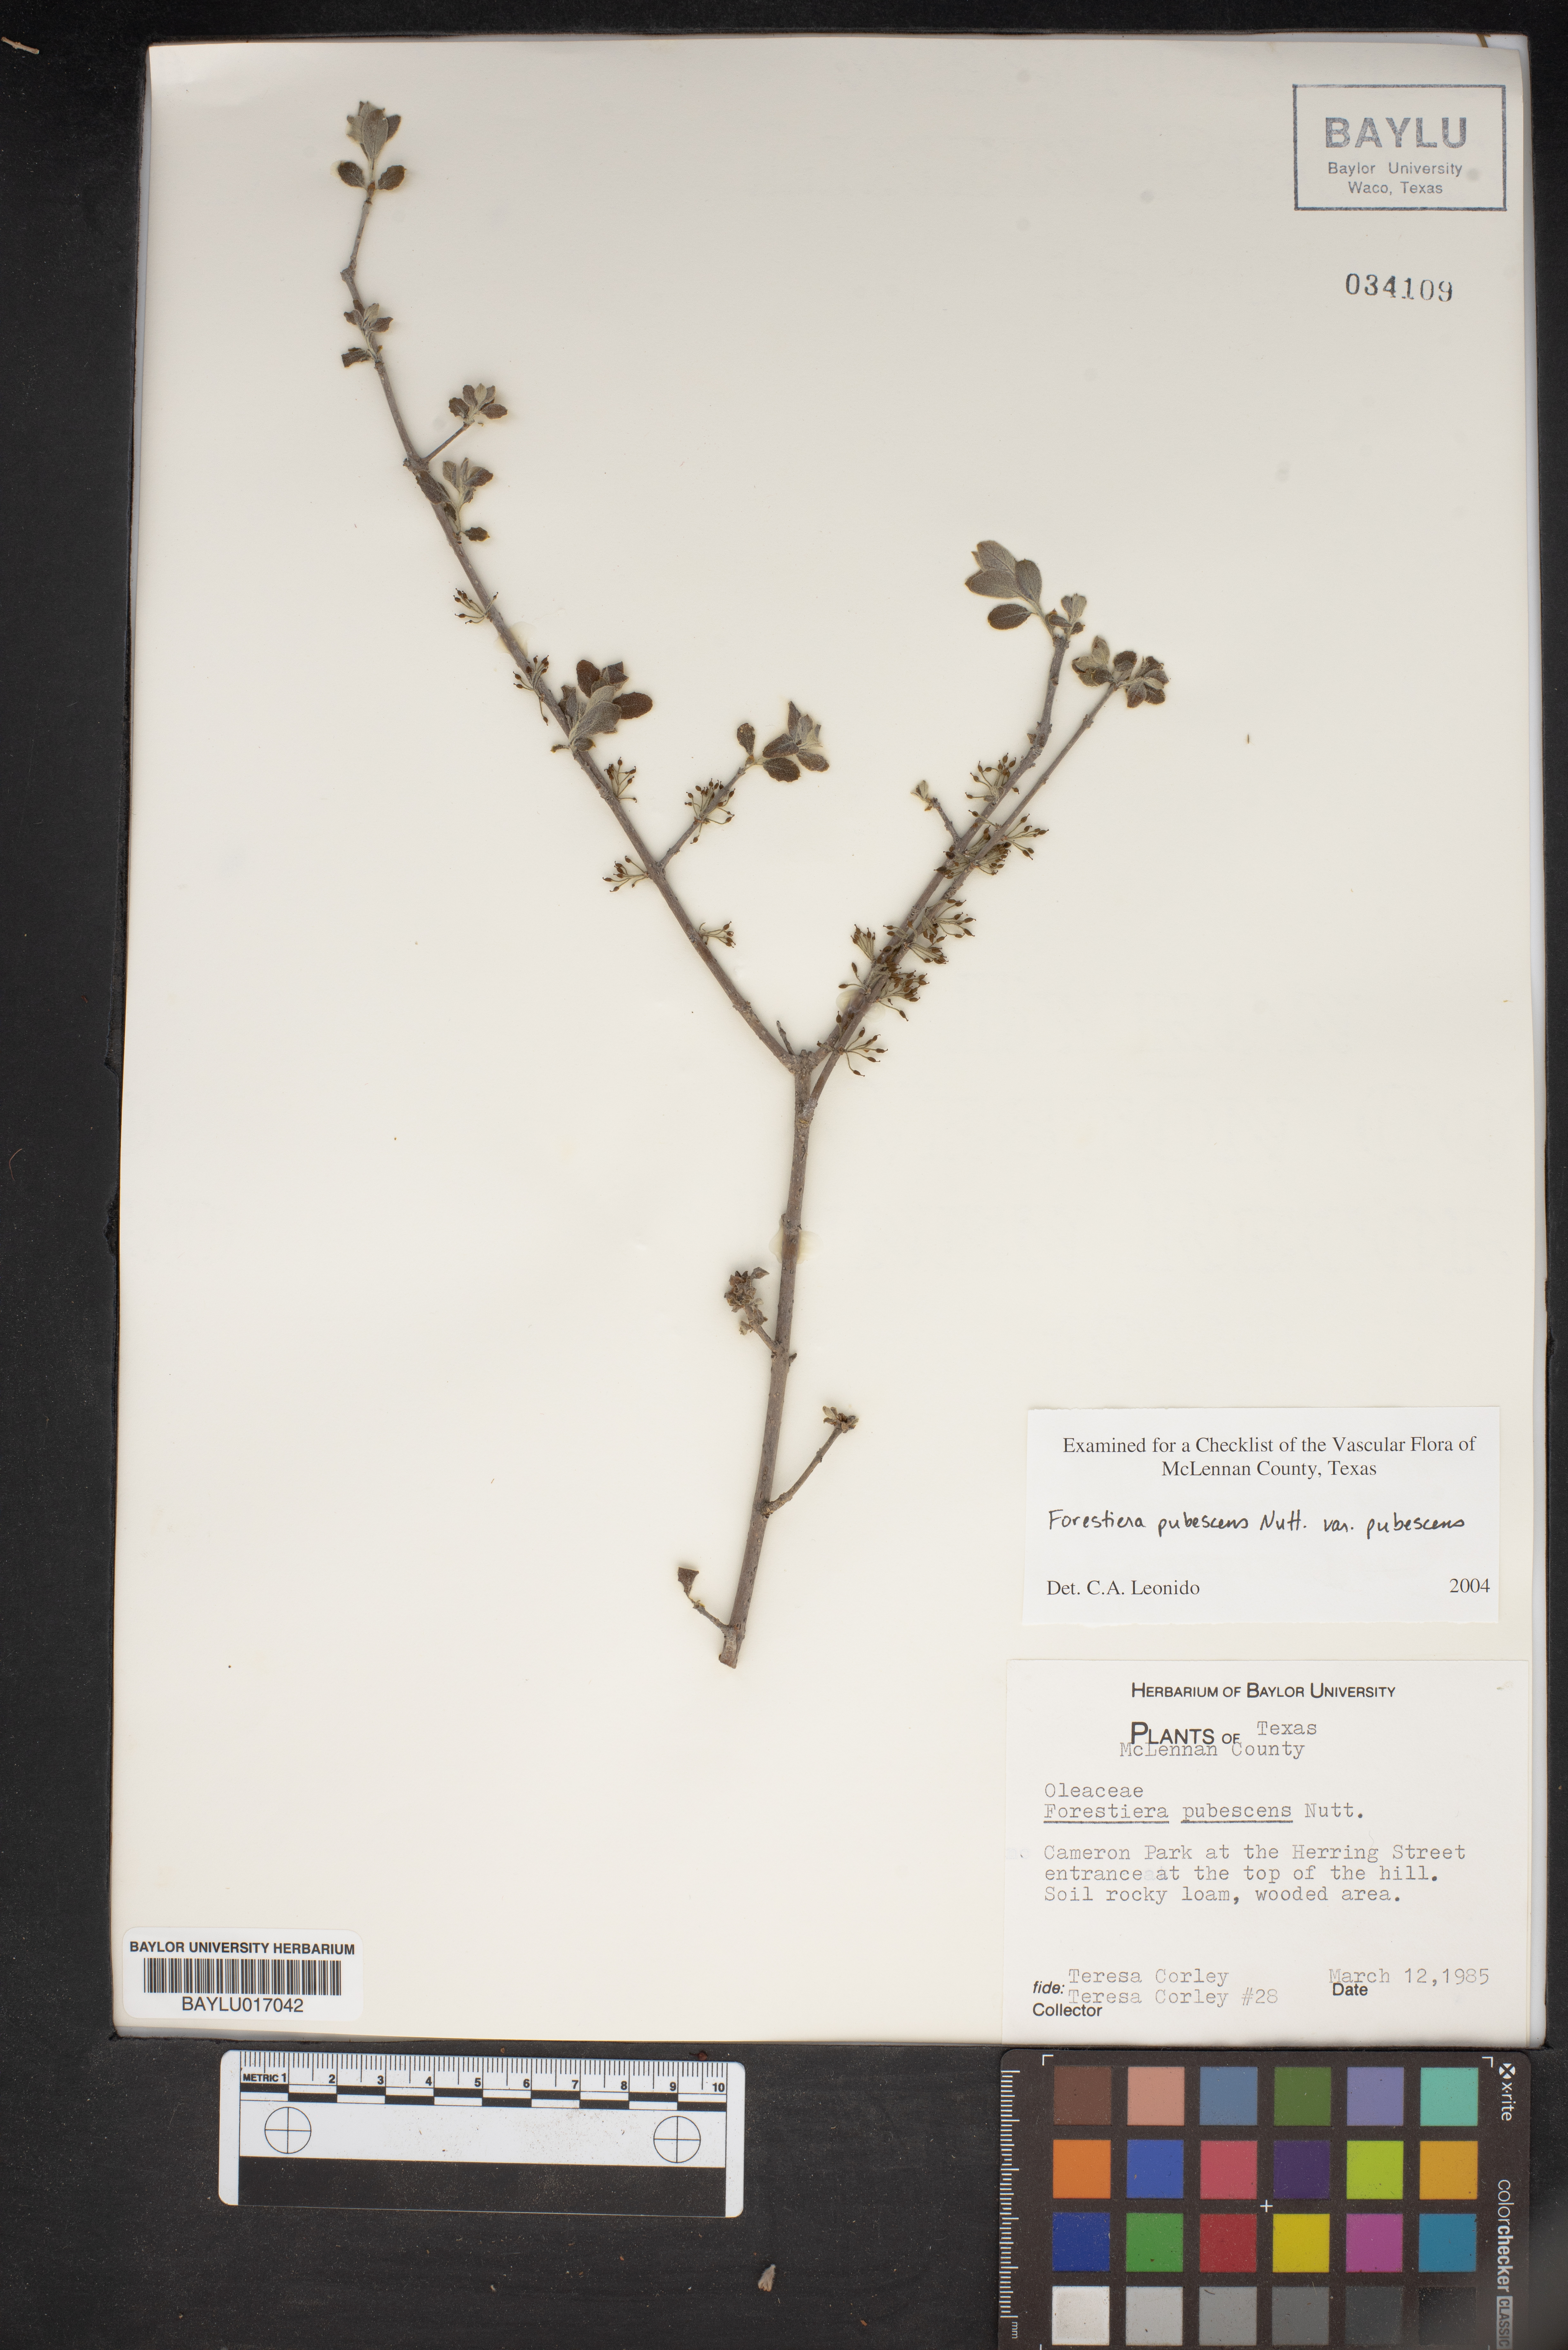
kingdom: Plantae
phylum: Tracheophyta
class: Magnoliopsida
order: Lamiales
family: Oleaceae
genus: Forestiera
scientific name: Forestiera pubescens
